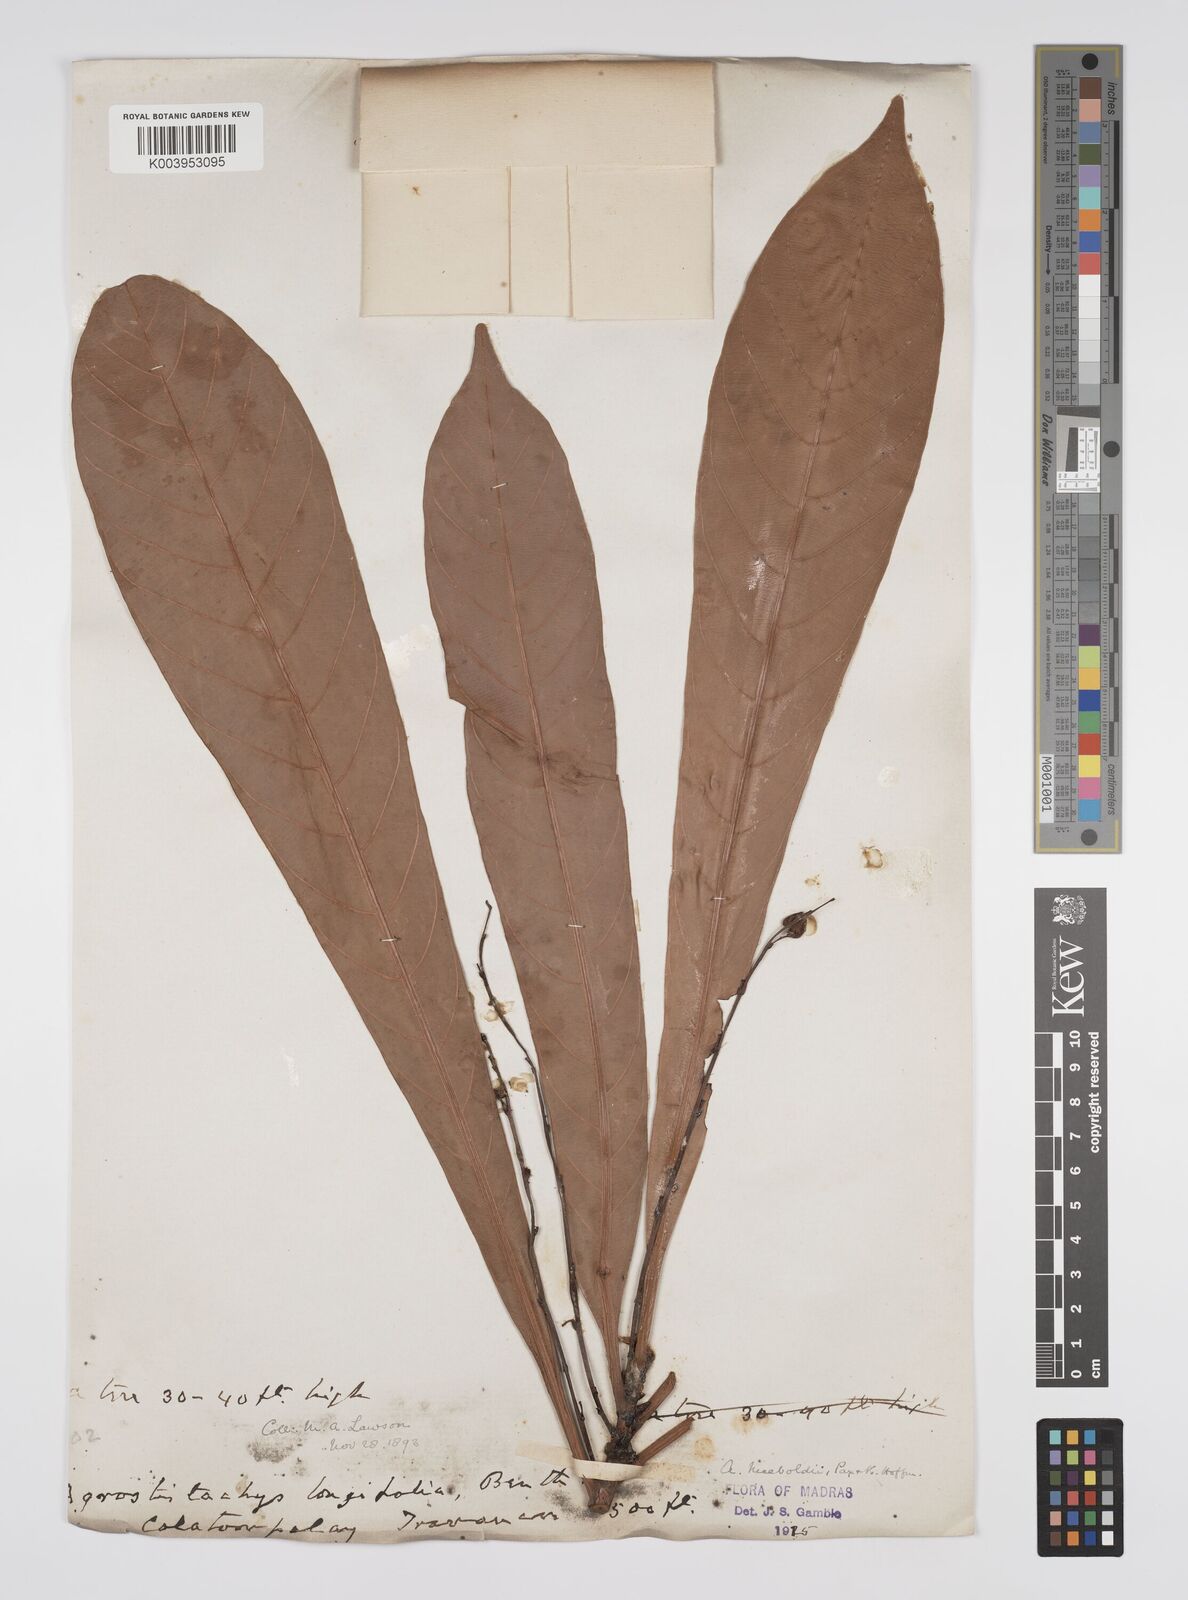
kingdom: Plantae
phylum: Tracheophyta
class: Magnoliopsida
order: Malpighiales
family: Euphorbiaceae
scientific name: Euphorbiaceae
